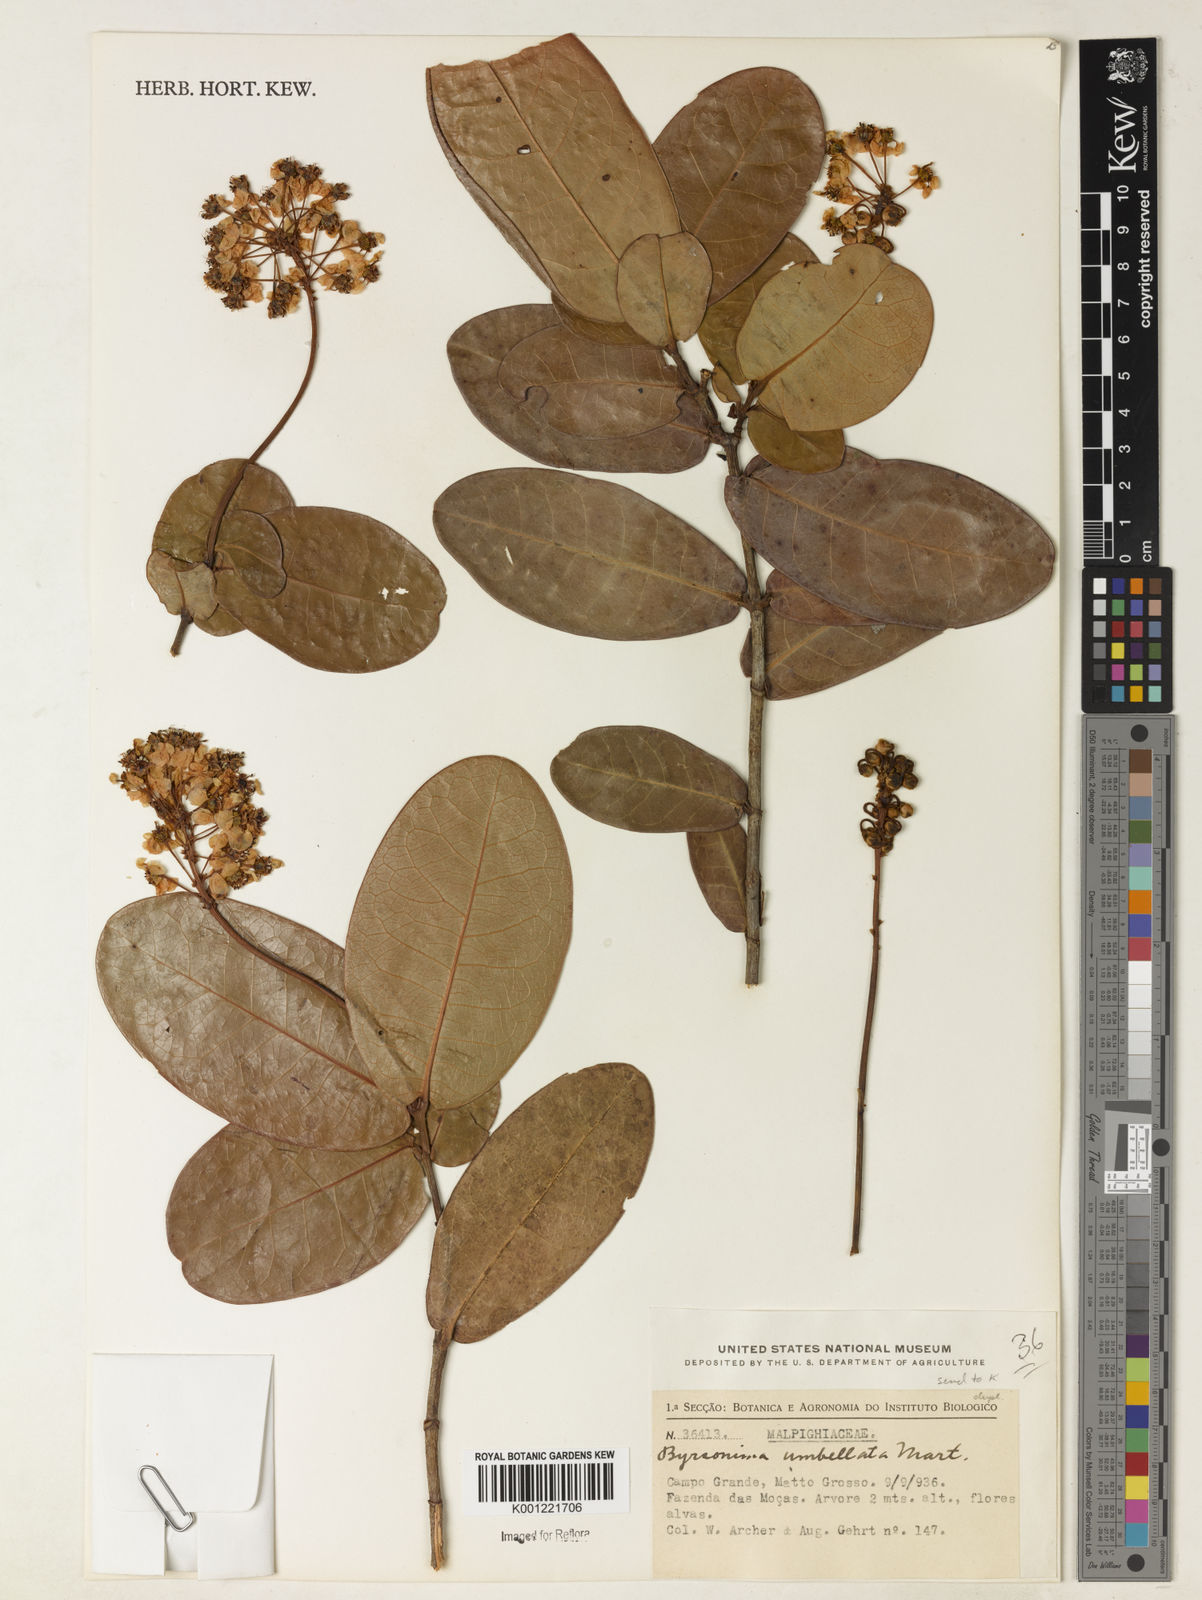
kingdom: Plantae
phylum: Tracheophyta
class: Magnoliopsida
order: Malpighiales
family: Malpighiaceae
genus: Byrsonima
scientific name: Byrsonima umbellata
